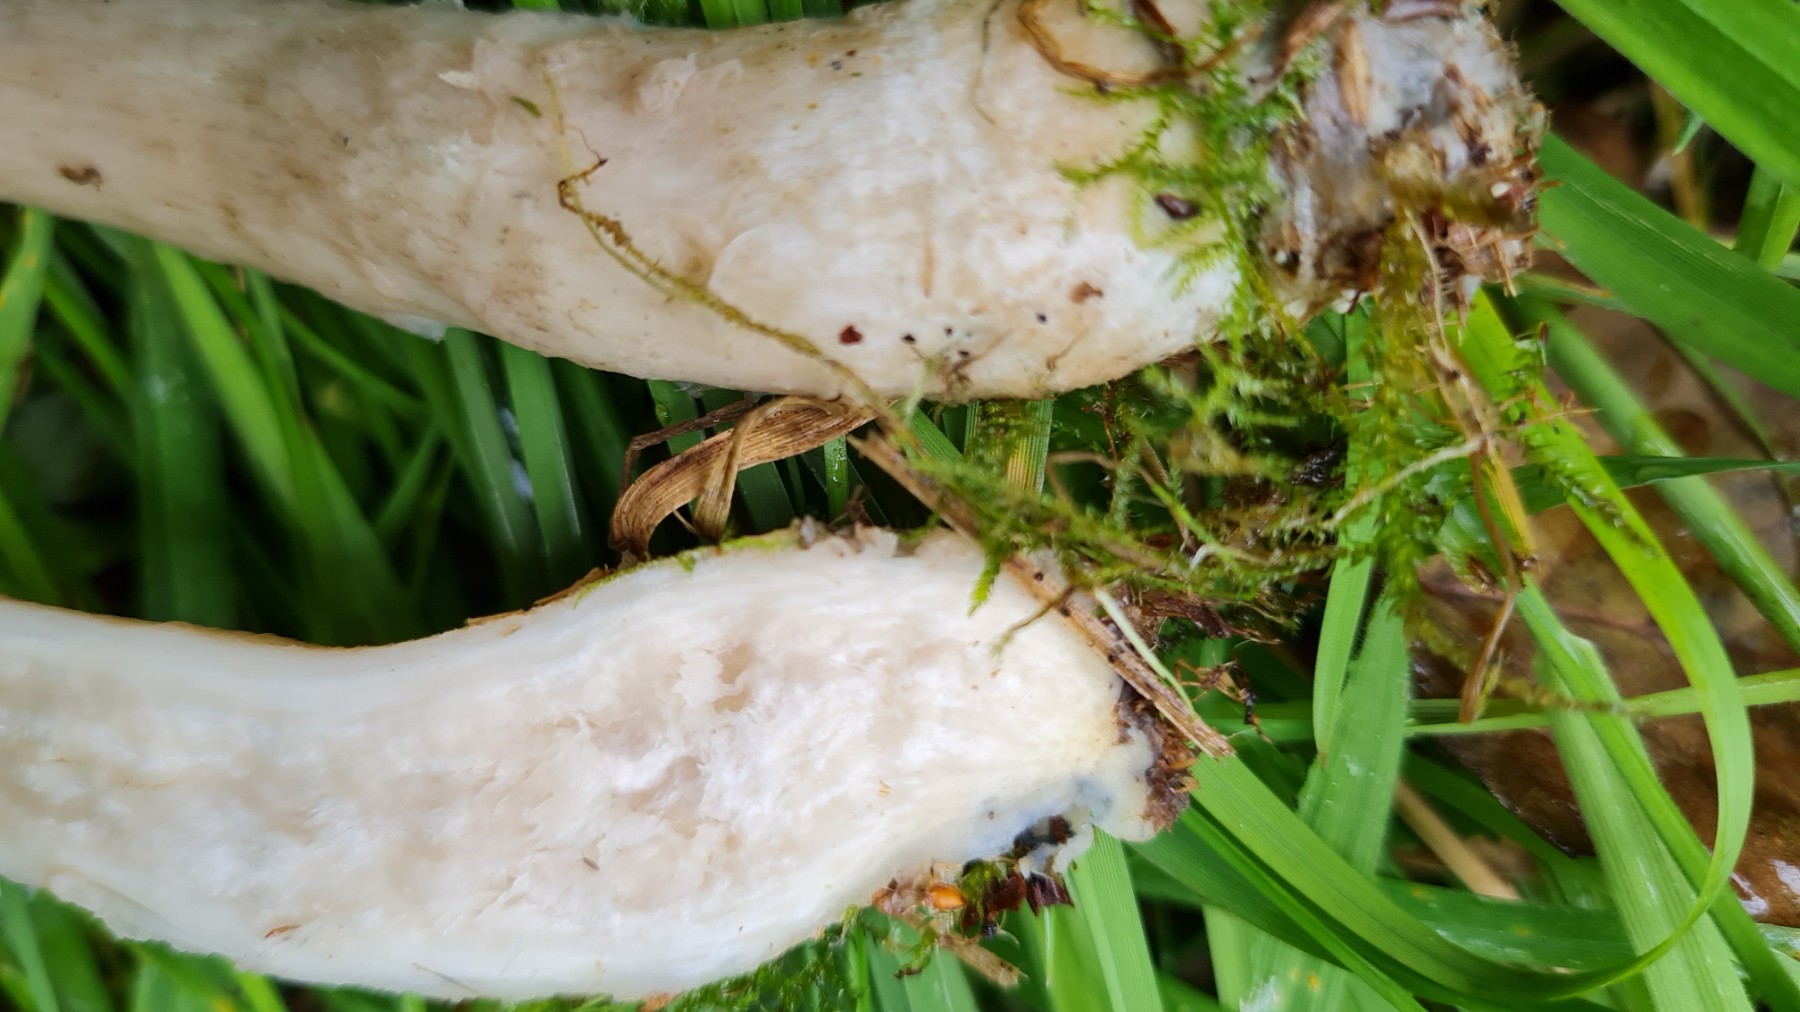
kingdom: Fungi
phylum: Basidiomycota
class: Agaricomycetes
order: Boletales
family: Boletaceae
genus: Leccinum
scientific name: Leccinum scabrum
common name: hvid skælrørhat
